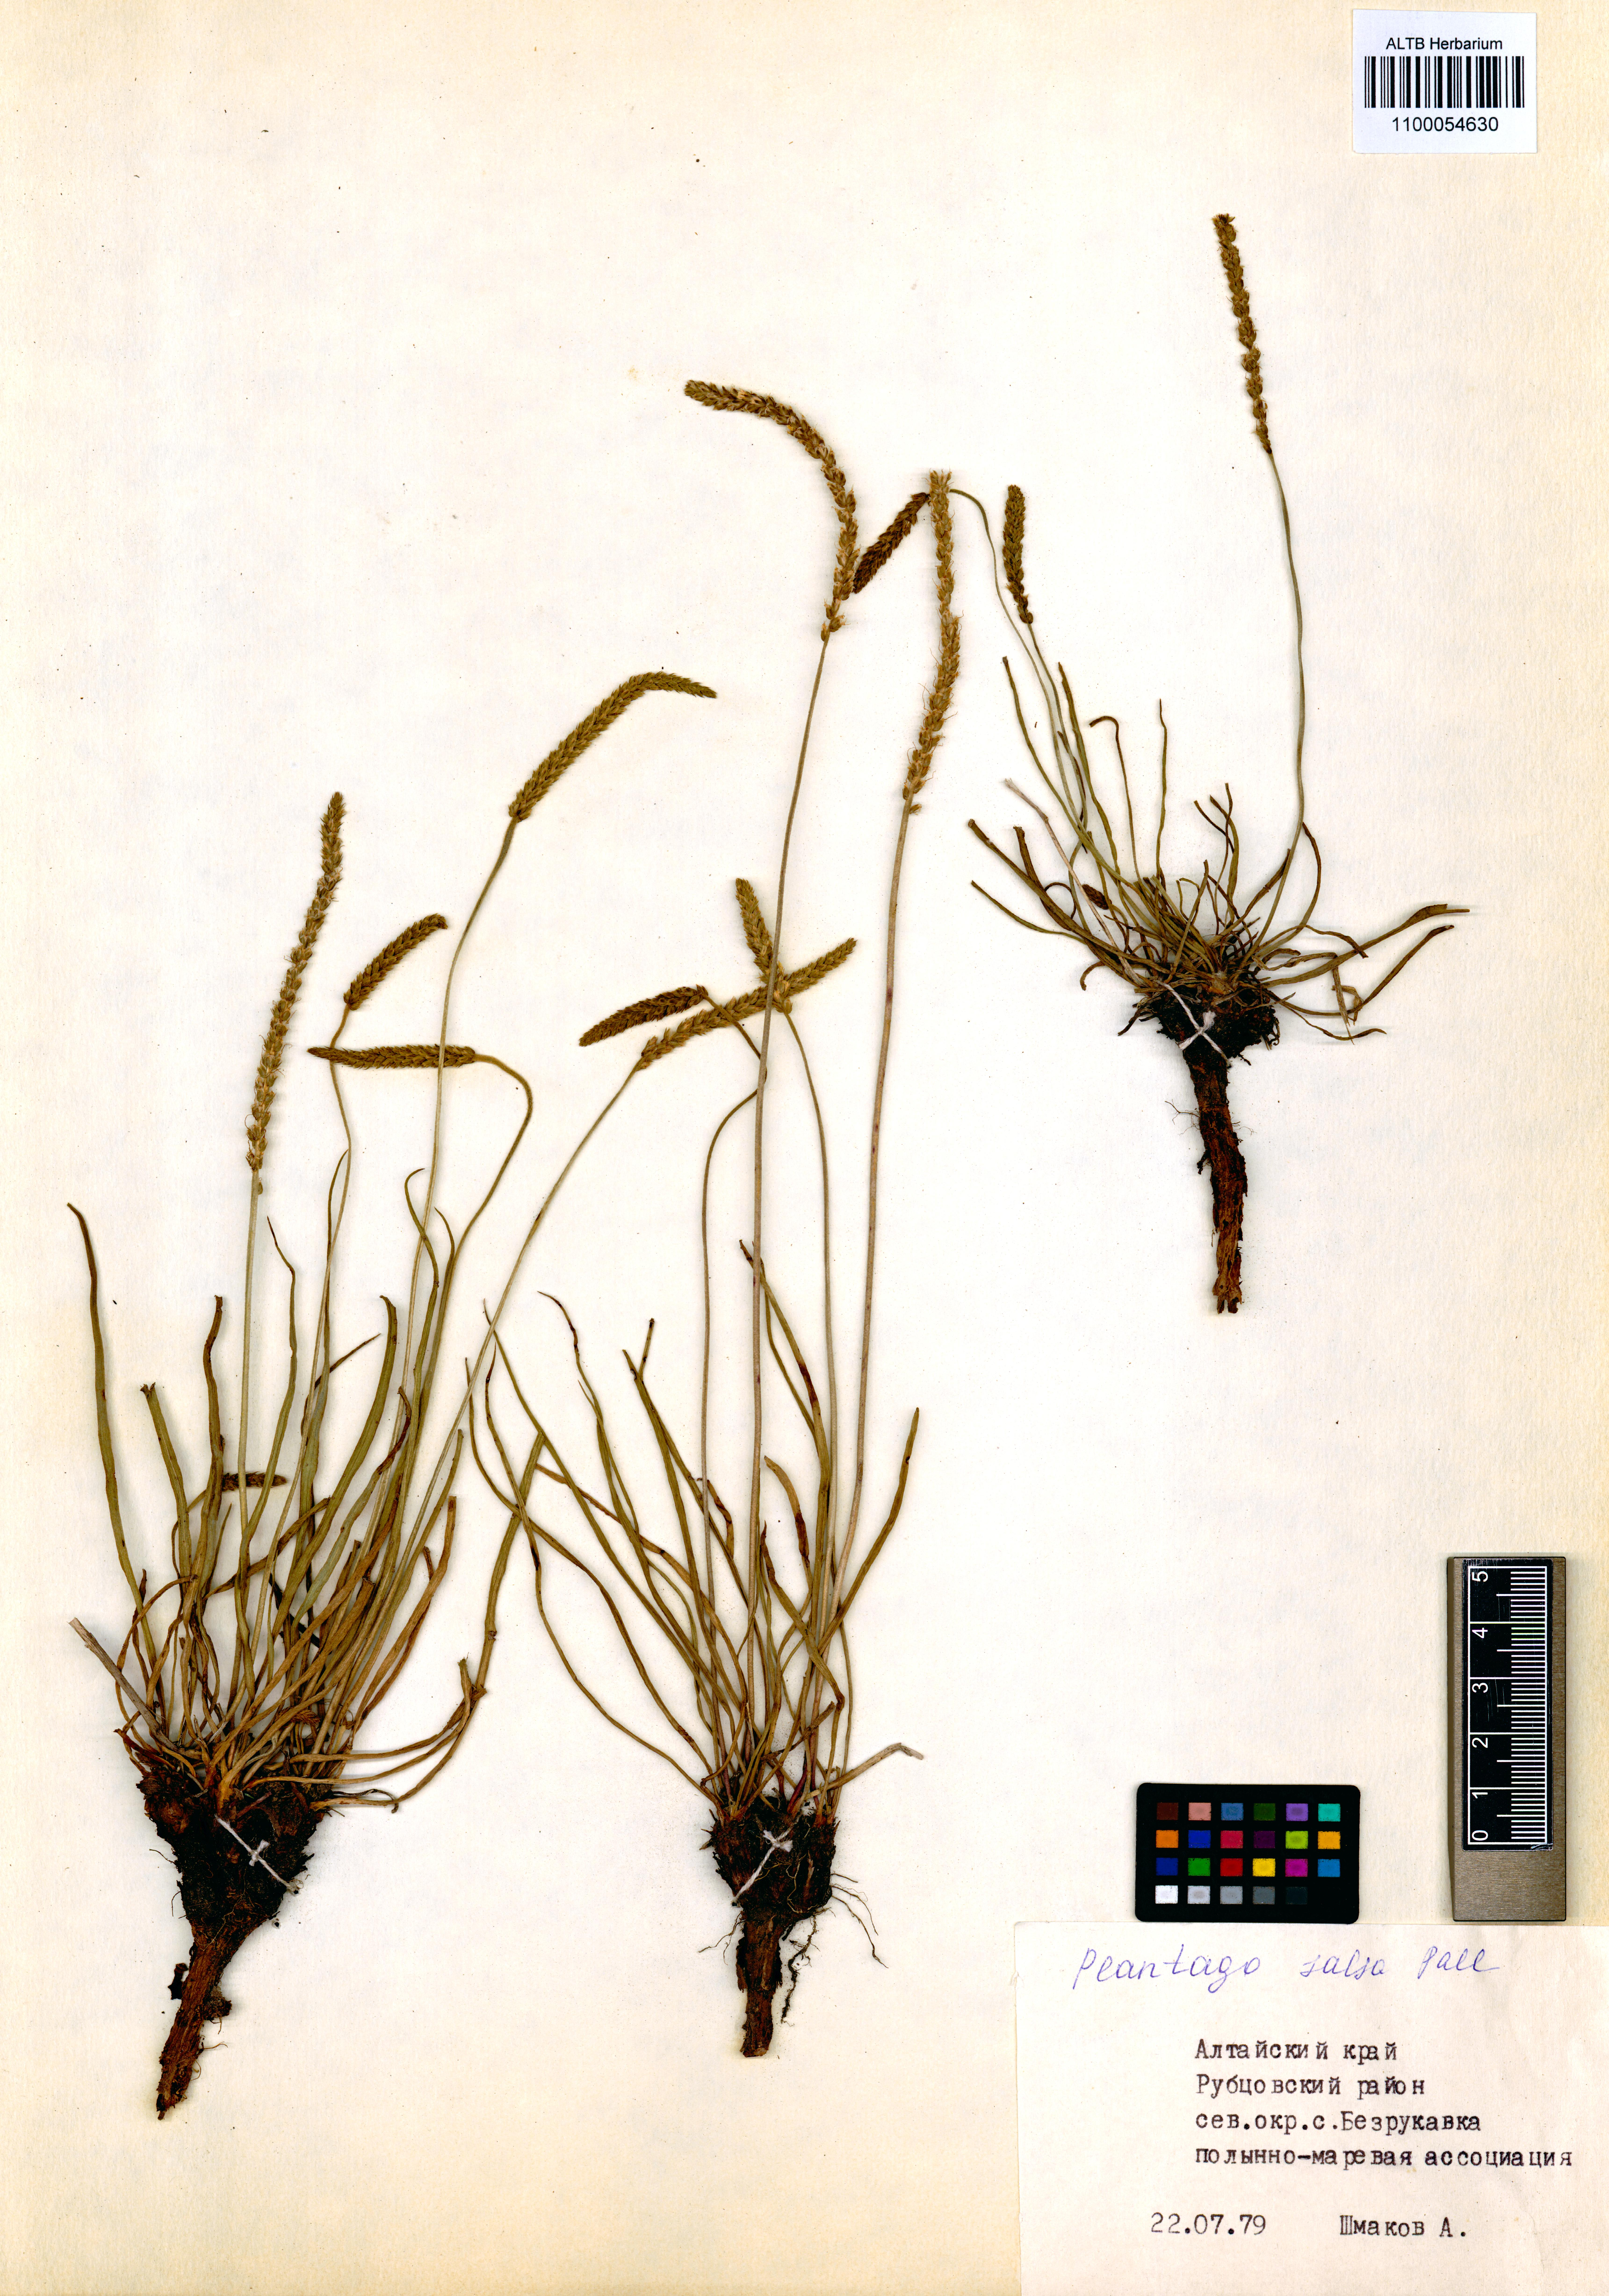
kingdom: Plantae
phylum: Tracheophyta
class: Magnoliopsida
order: Lamiales
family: Plantaginaceae
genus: Plantago
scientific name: Plantago salsa
